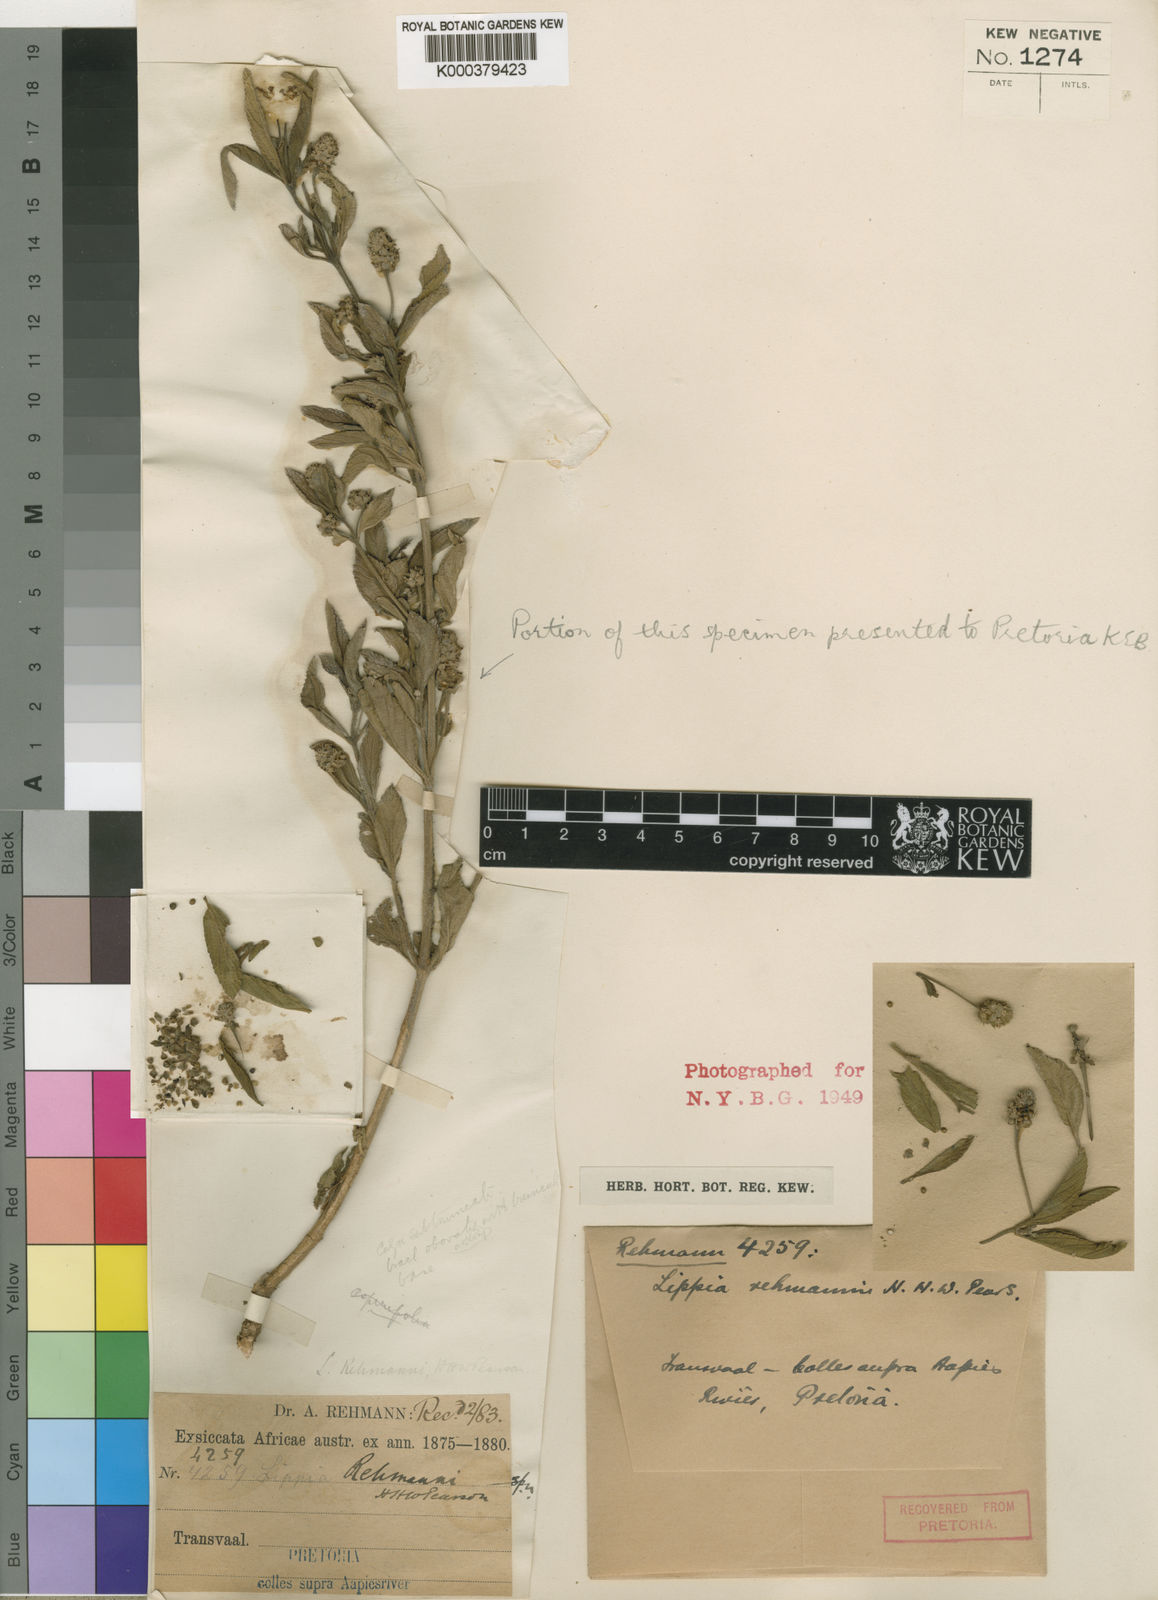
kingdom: Plantae
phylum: Tracheophyta
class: Magnoliopsida
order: Lamiales
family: Verbenaceae
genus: Lippia
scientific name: Lippia rehmannii
